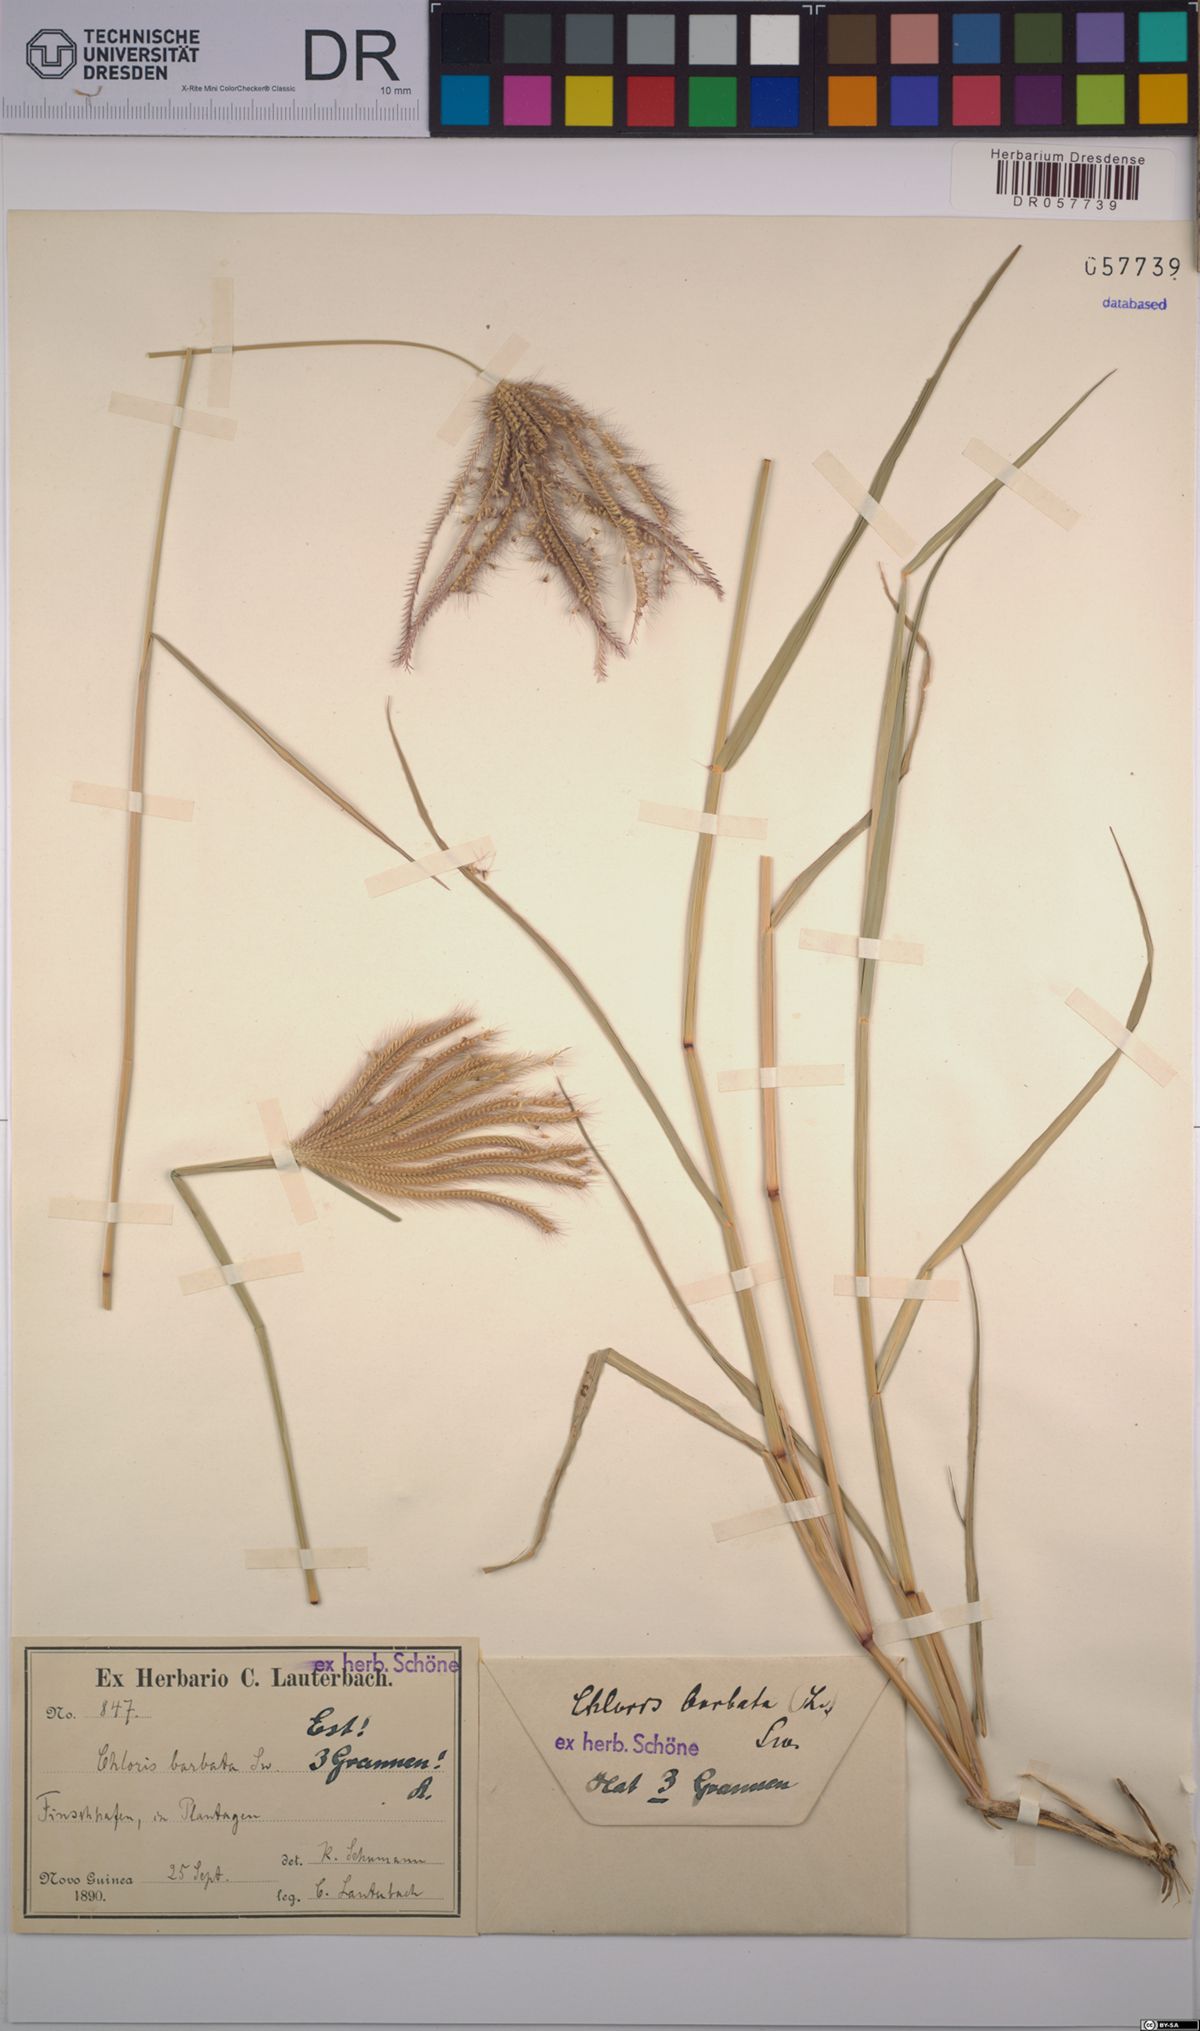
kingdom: Plantae
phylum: Tracheophyta
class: Liliopsida
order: Poales
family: Poaceae
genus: Chloris
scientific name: Chloris barbata
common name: Swollen fingergrass
